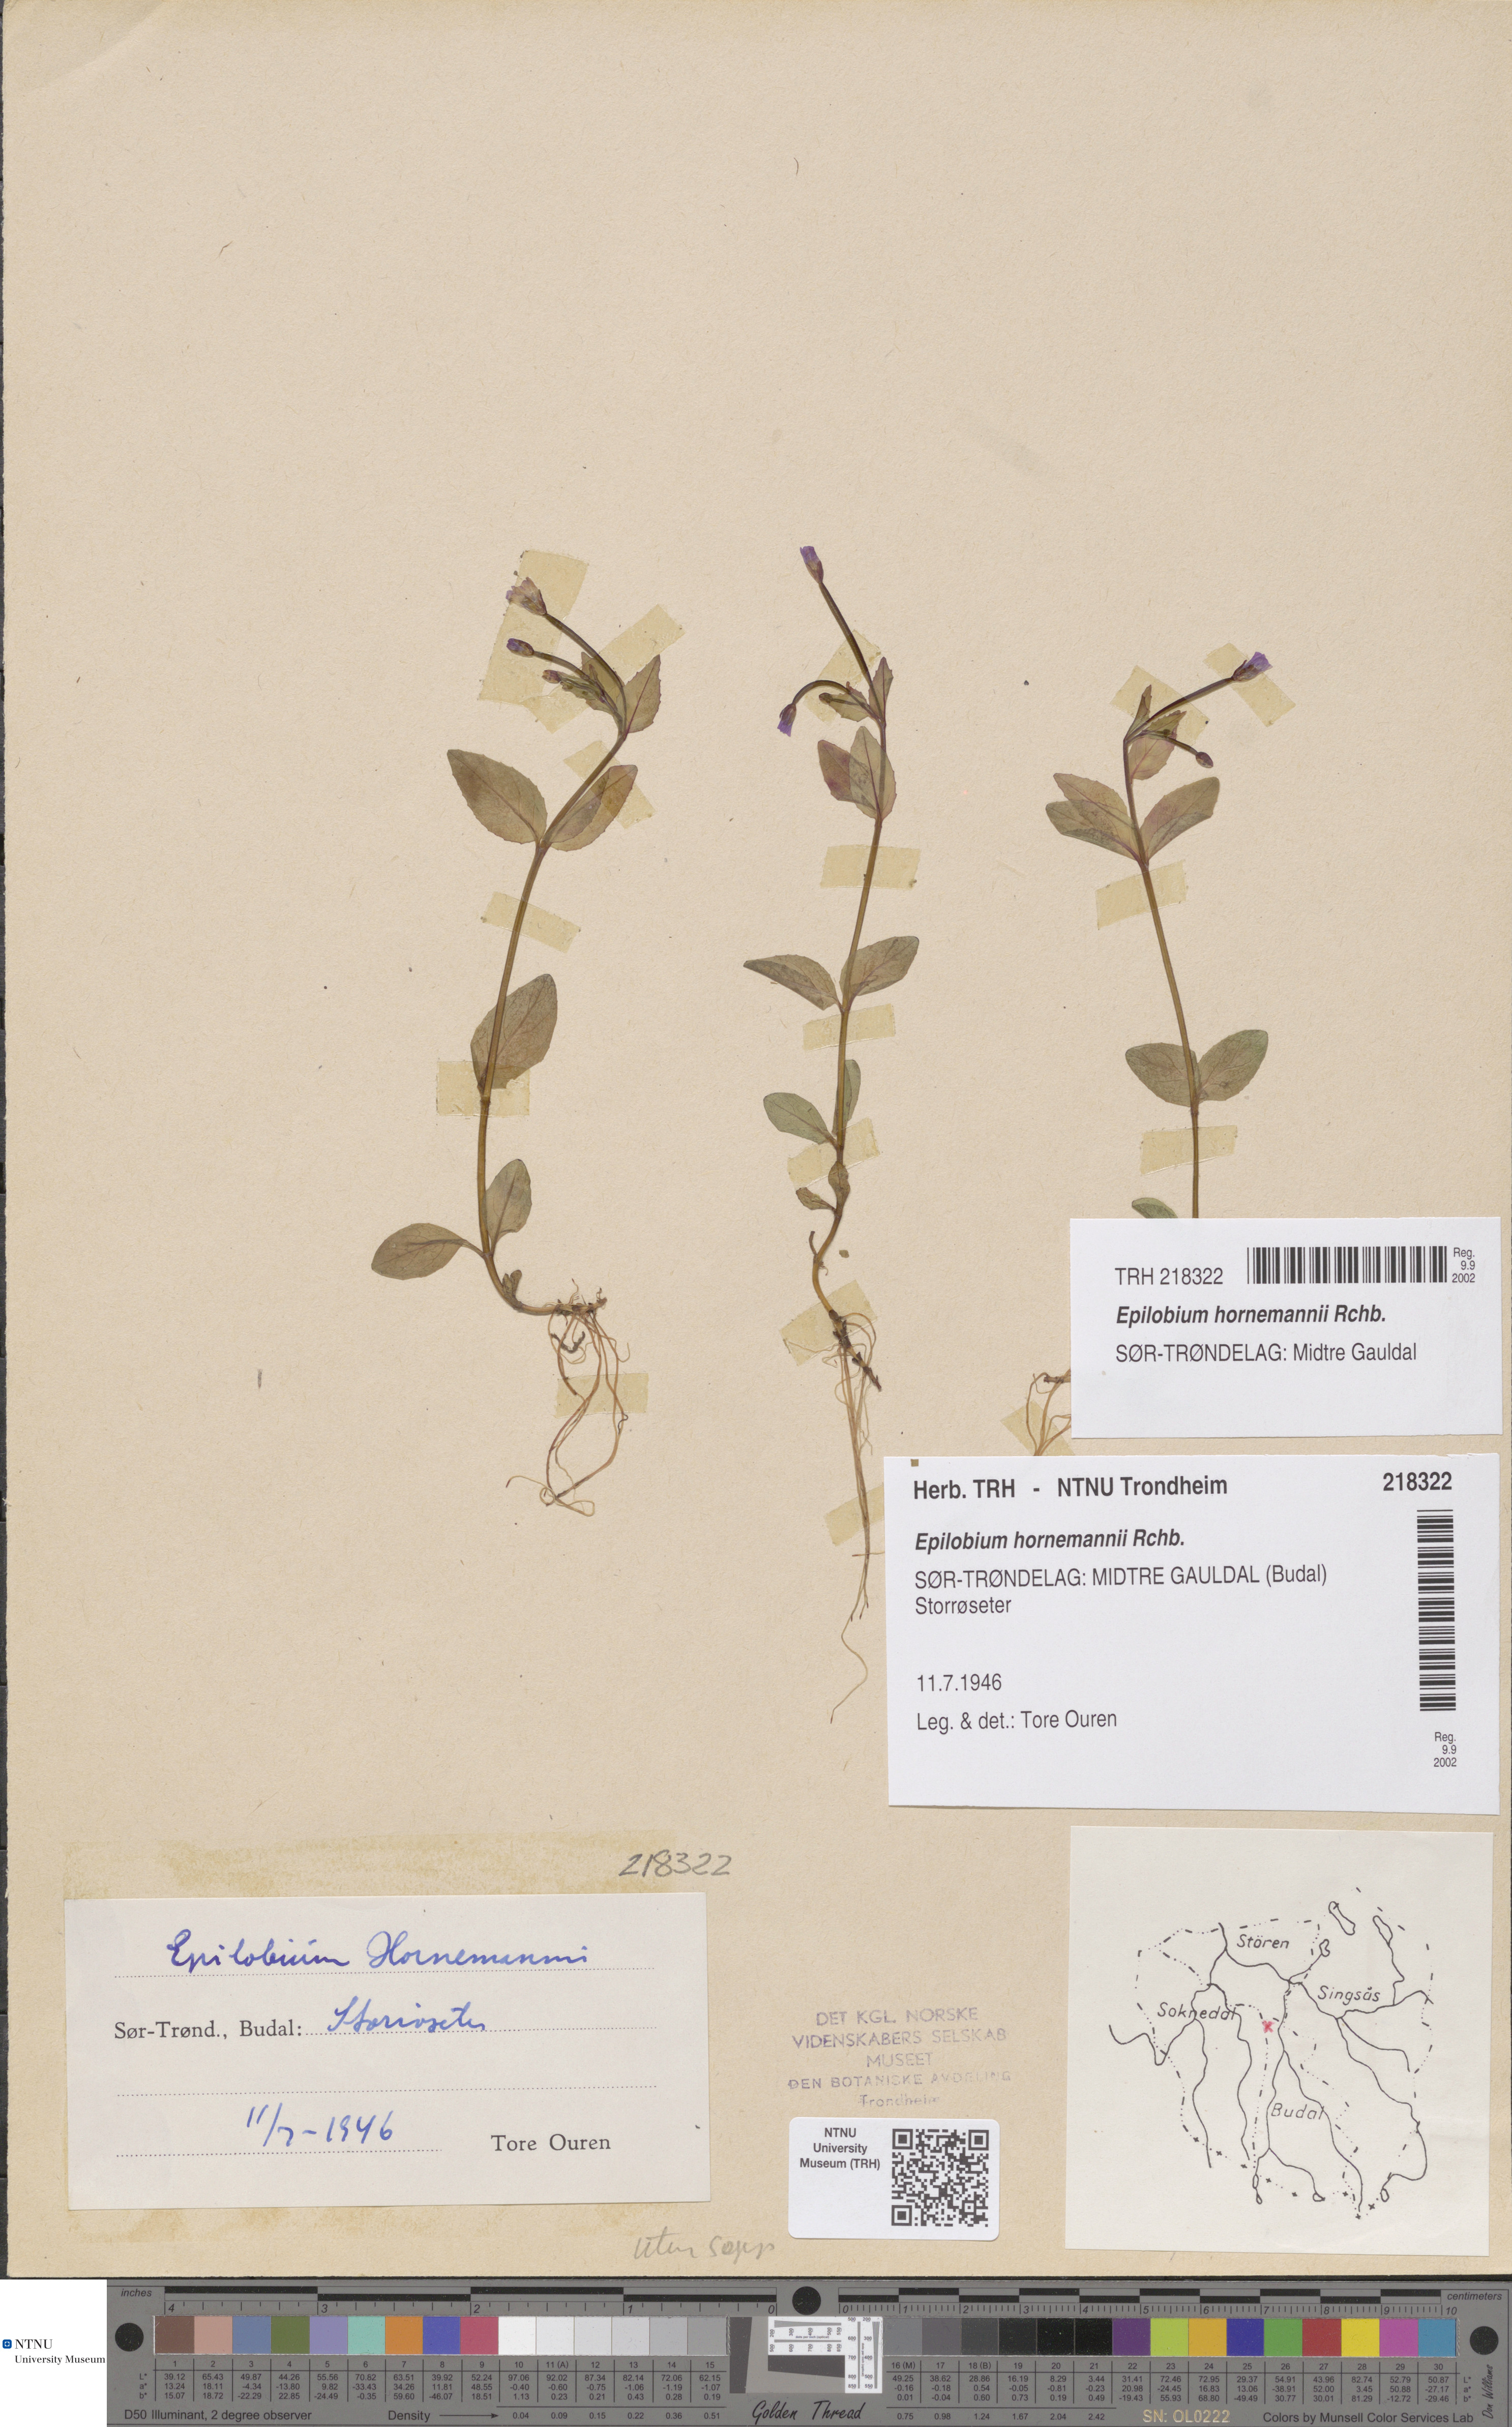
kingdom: Plantae
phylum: Tracheophyta
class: Magnoliopsida
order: Myrtales
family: Onagraceae
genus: Epilobium
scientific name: Epilobium hornemannii
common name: Hornemann's willowherb
